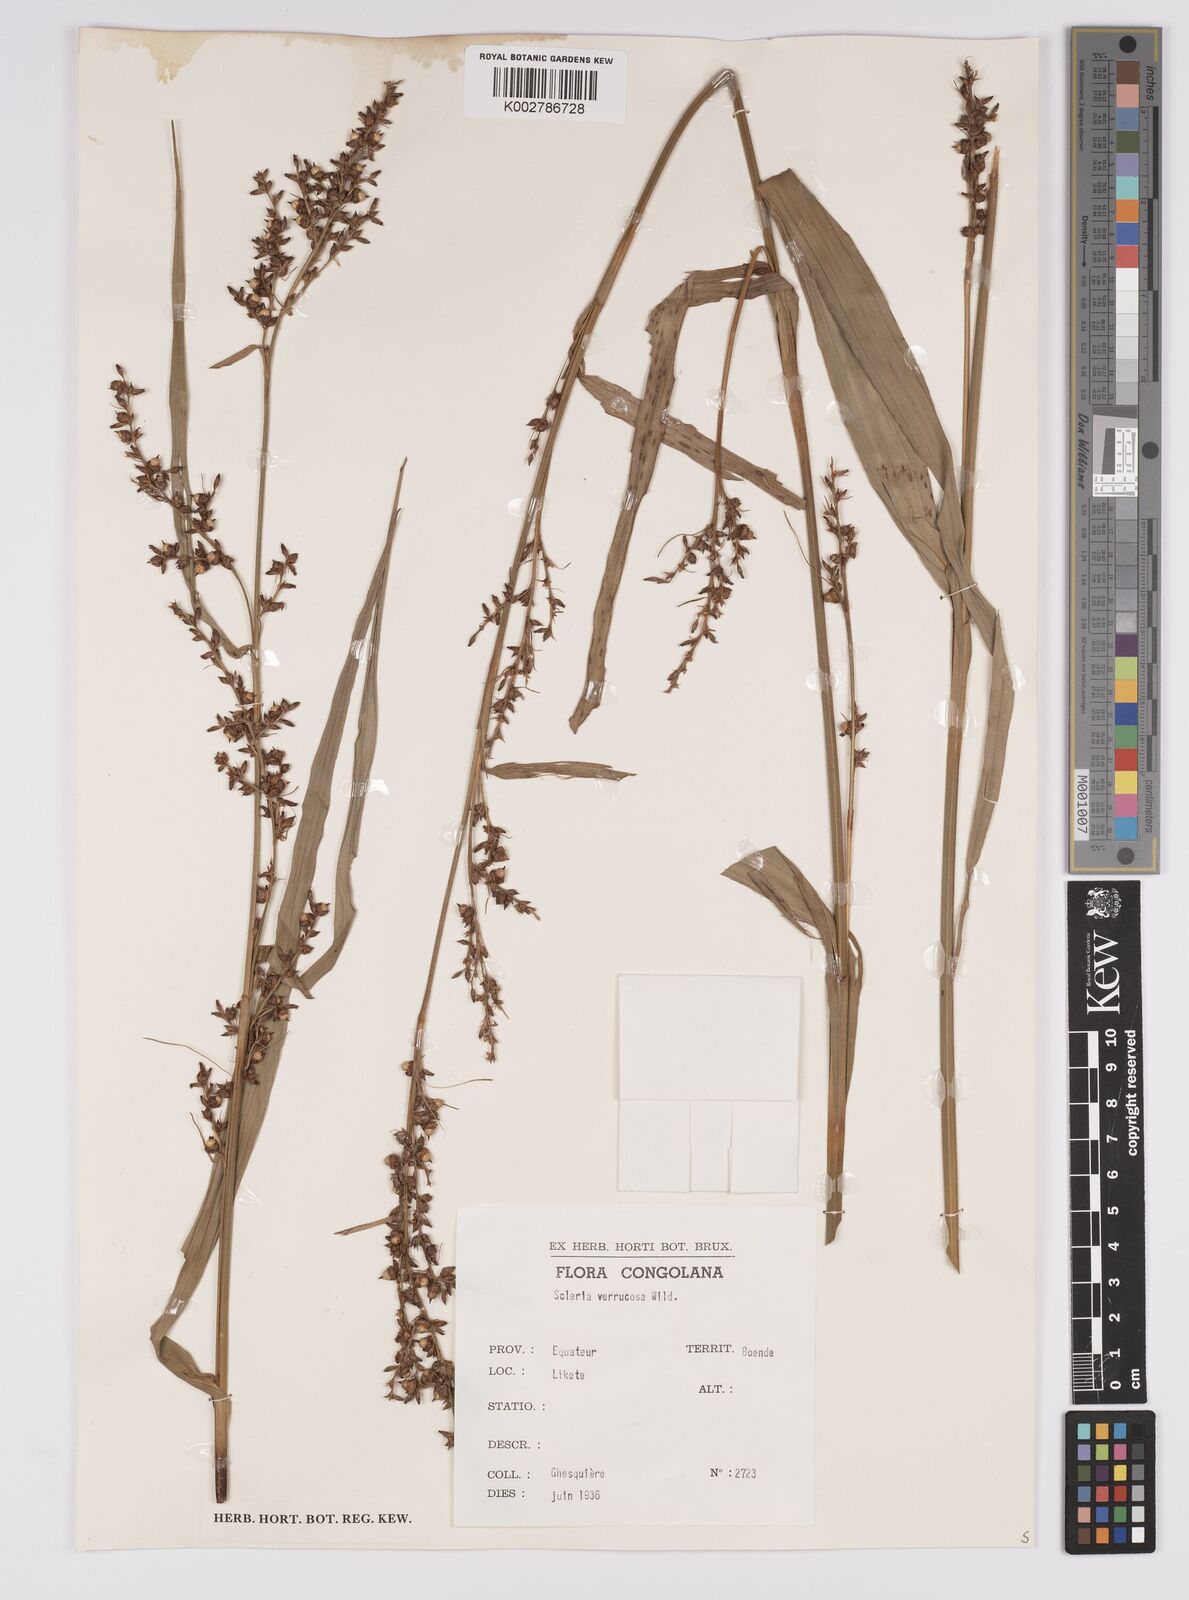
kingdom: Plantae
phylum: Tracheophyta
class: Liliopsida
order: Poales
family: Cyperaceae
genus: Scleria
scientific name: Scleria verrucosa
